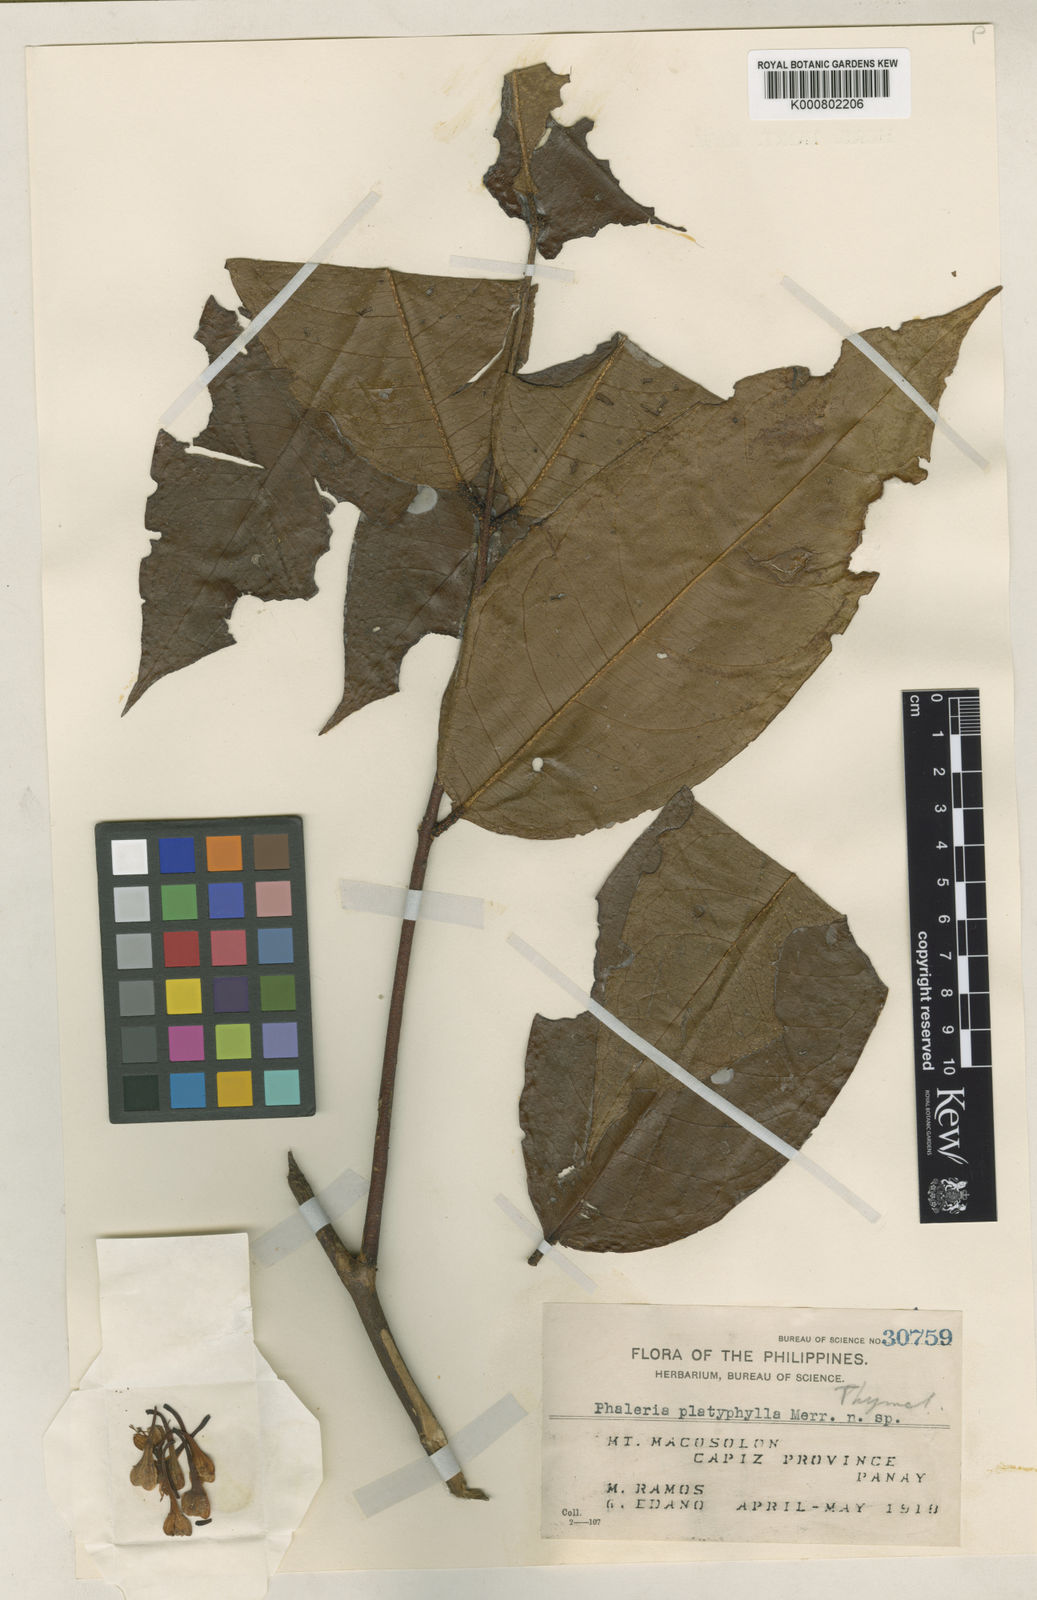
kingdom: Plantae
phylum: Tracheophyta
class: Magnoliopsida
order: Malvales
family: Thymelaeaceae
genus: Phaleria
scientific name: Phaleria coccinea
